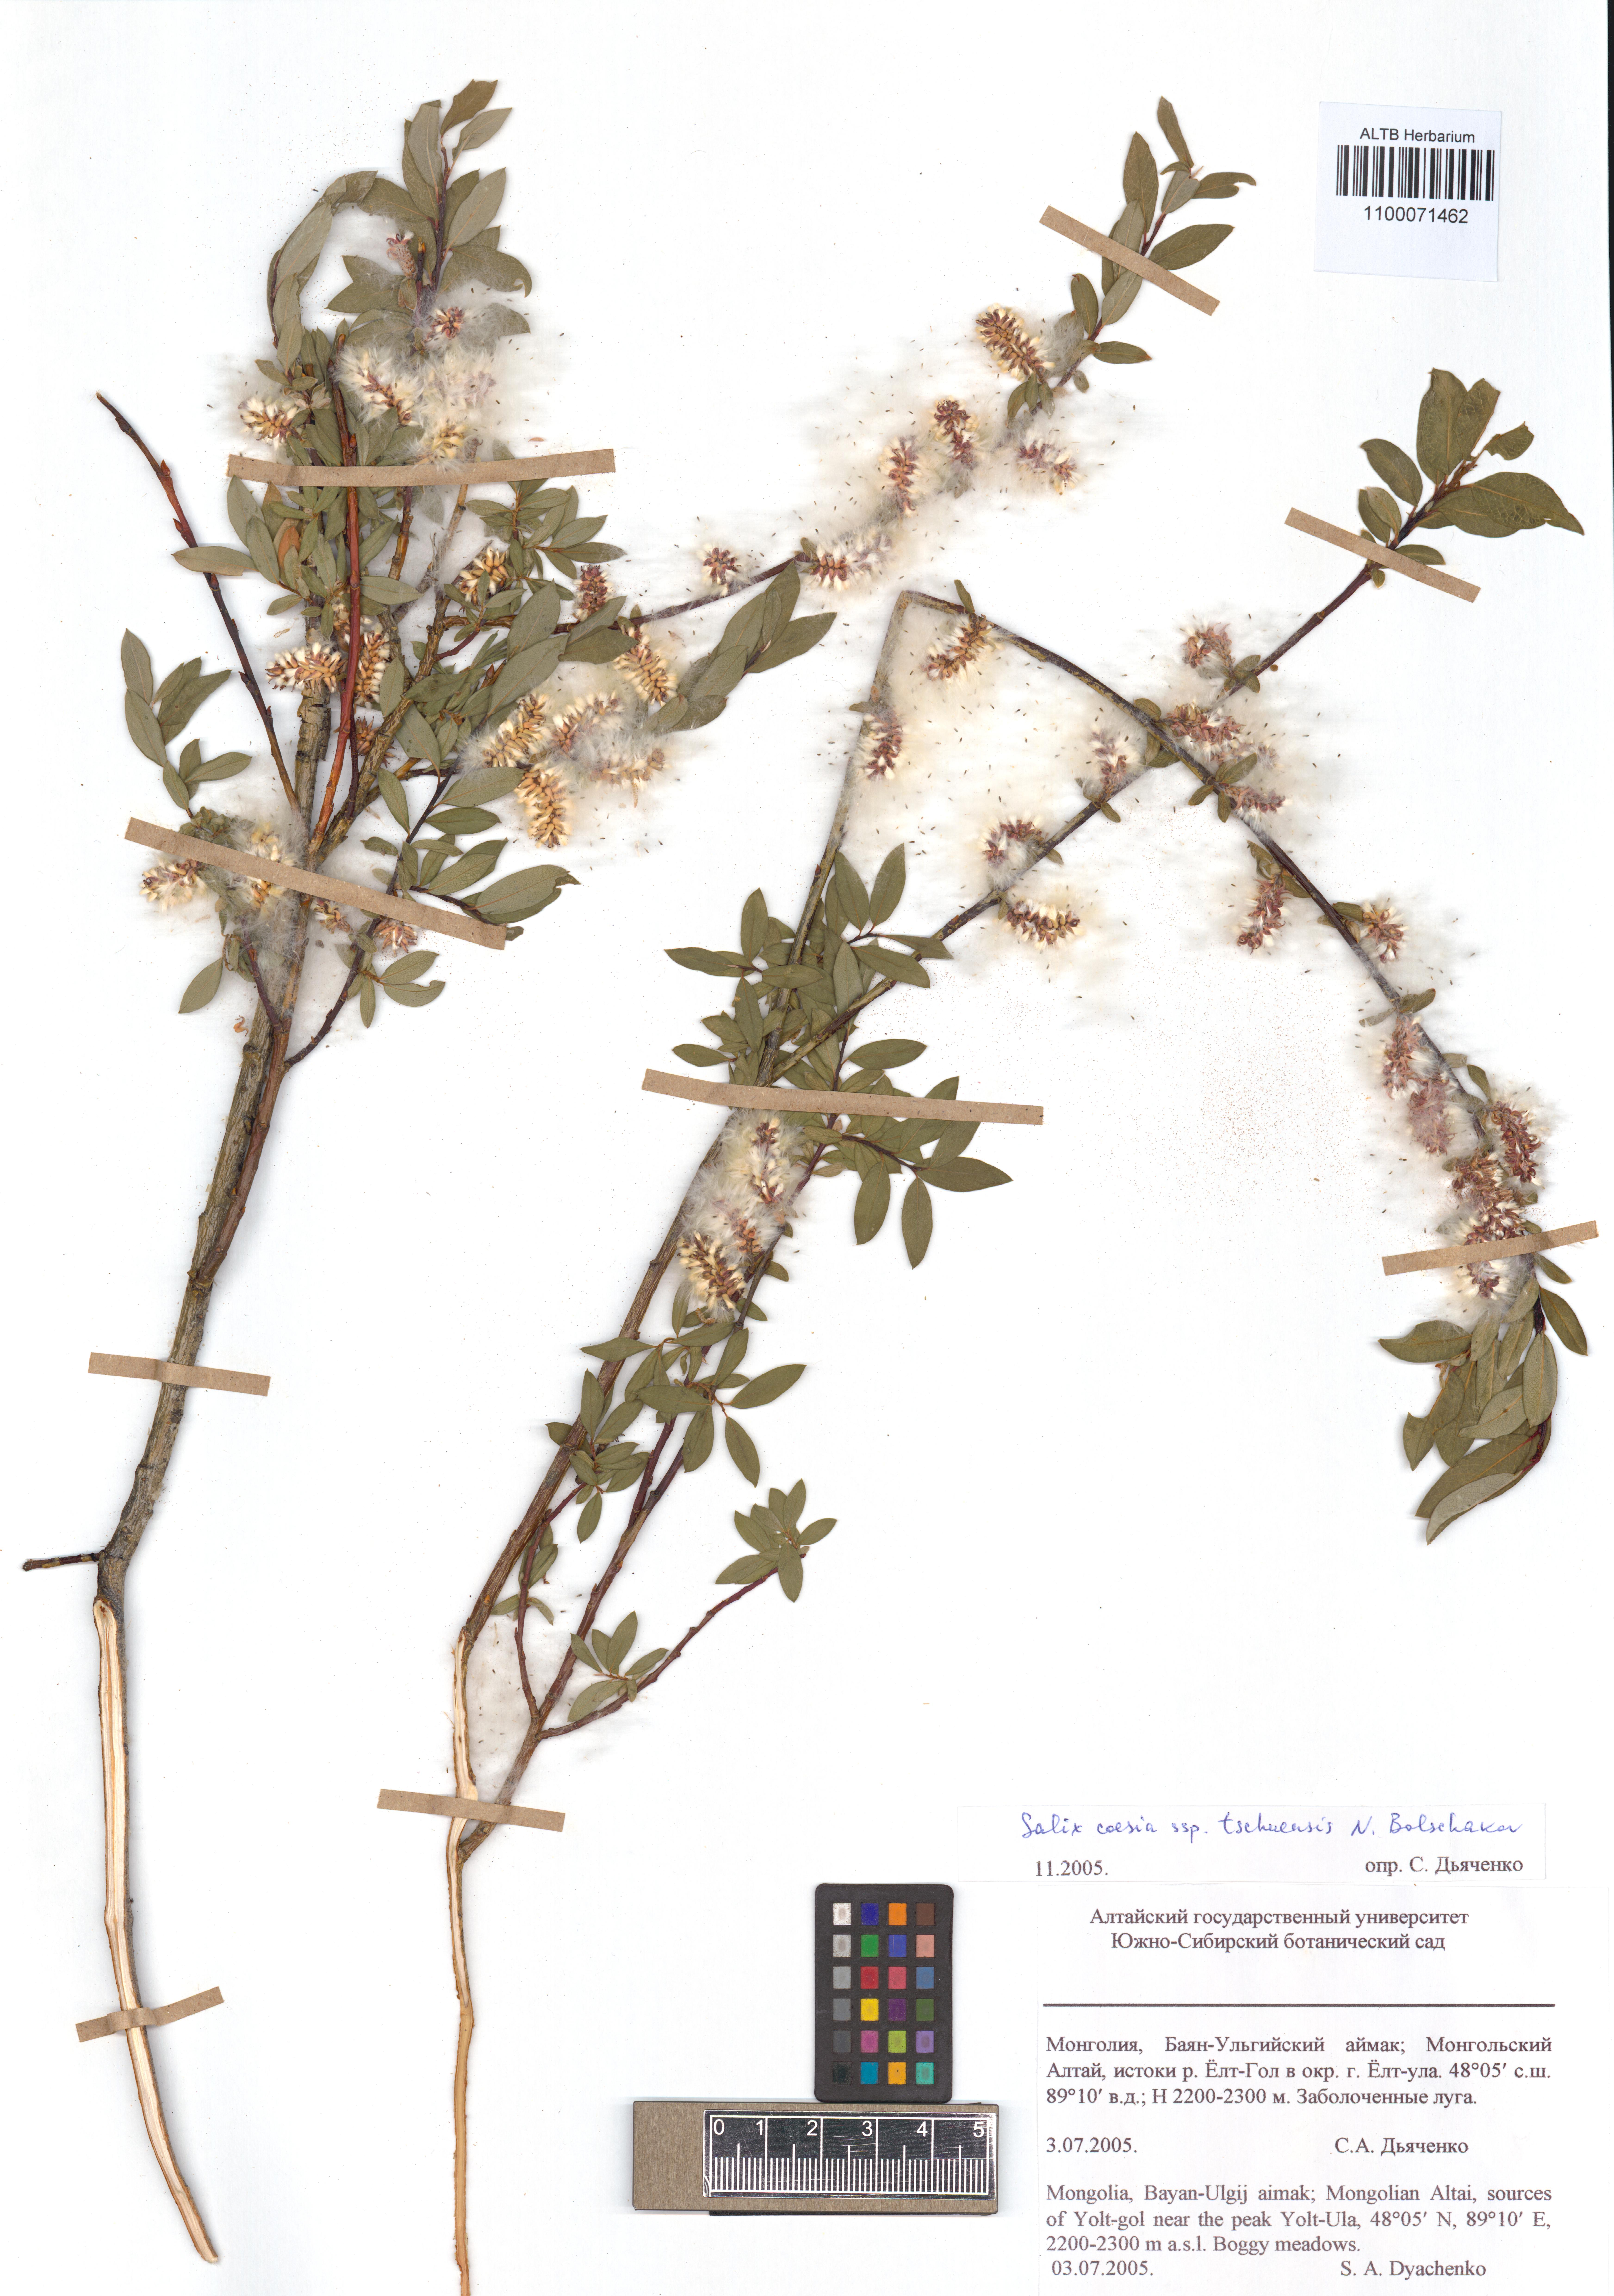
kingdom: Plantae
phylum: Tracheophyta
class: Magnoliopsida
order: Malpighiales
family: Salicaceae
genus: Salix
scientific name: Salix caesia
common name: Blue willow
